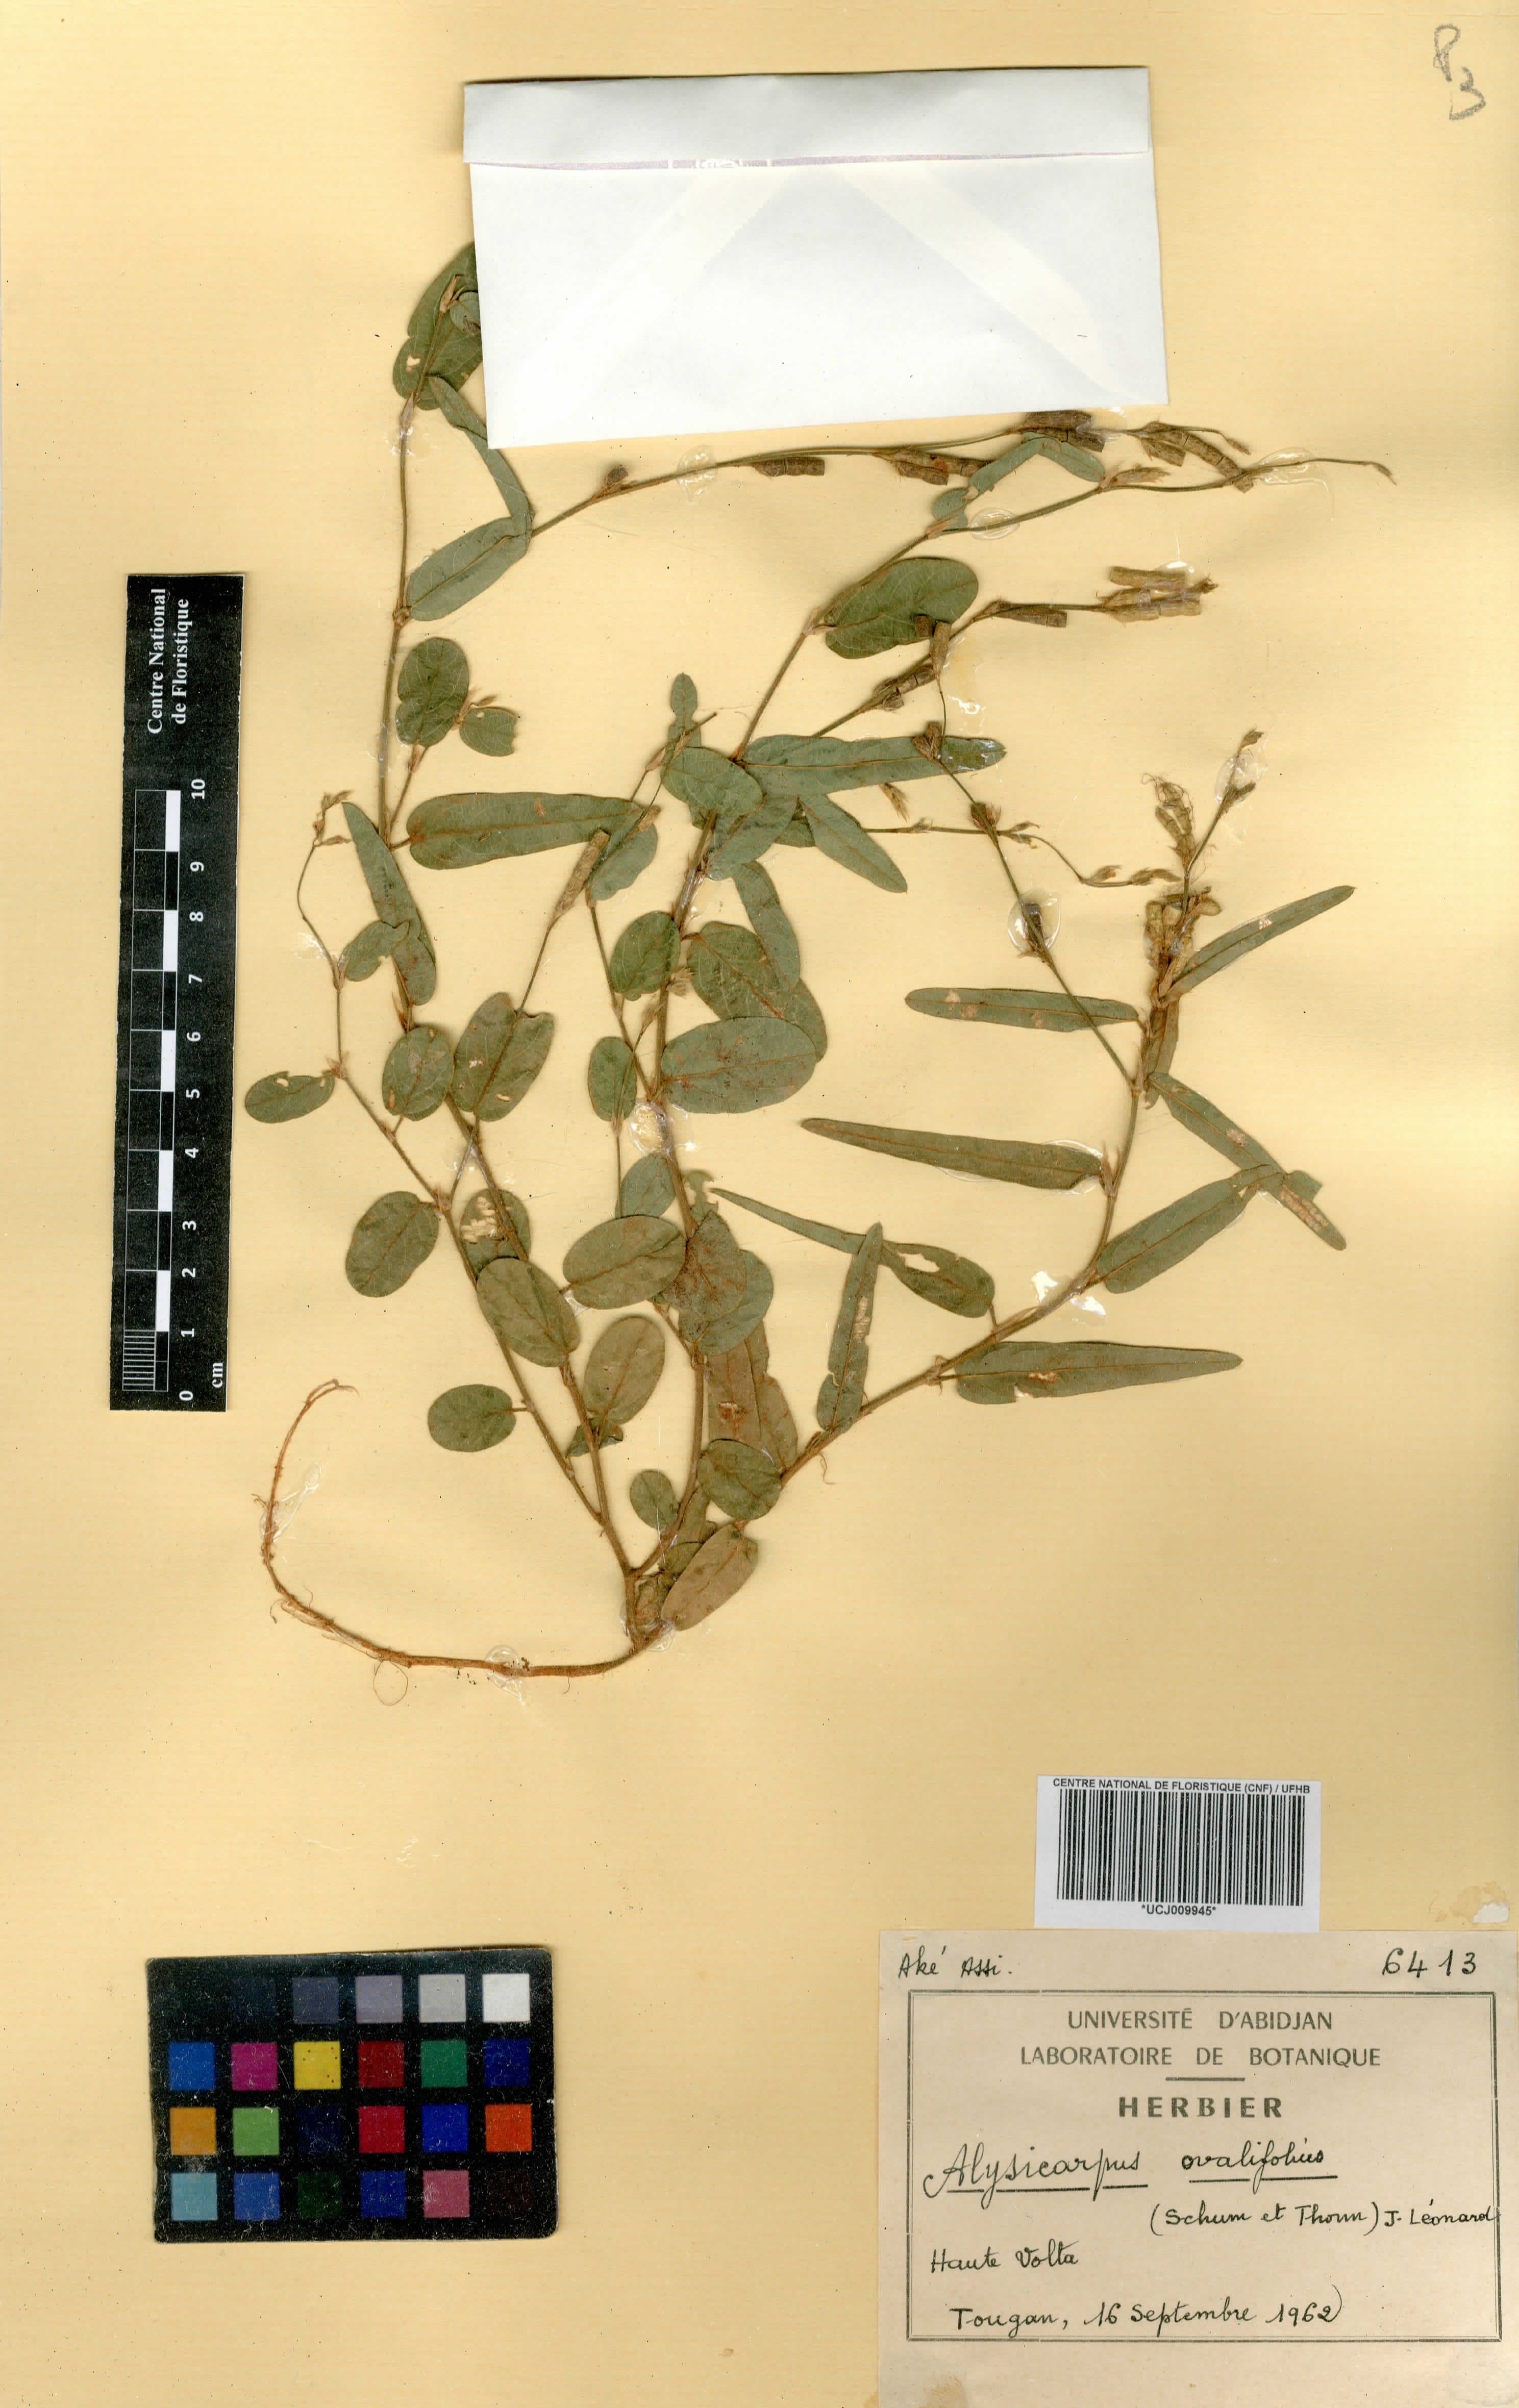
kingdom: Plantae
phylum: Tracheophyta
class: Magnoliopsida
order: Fabales
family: Fabaceae
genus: Alysicarpus
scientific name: Alysicarpus ovalifolius
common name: Alyce clover
